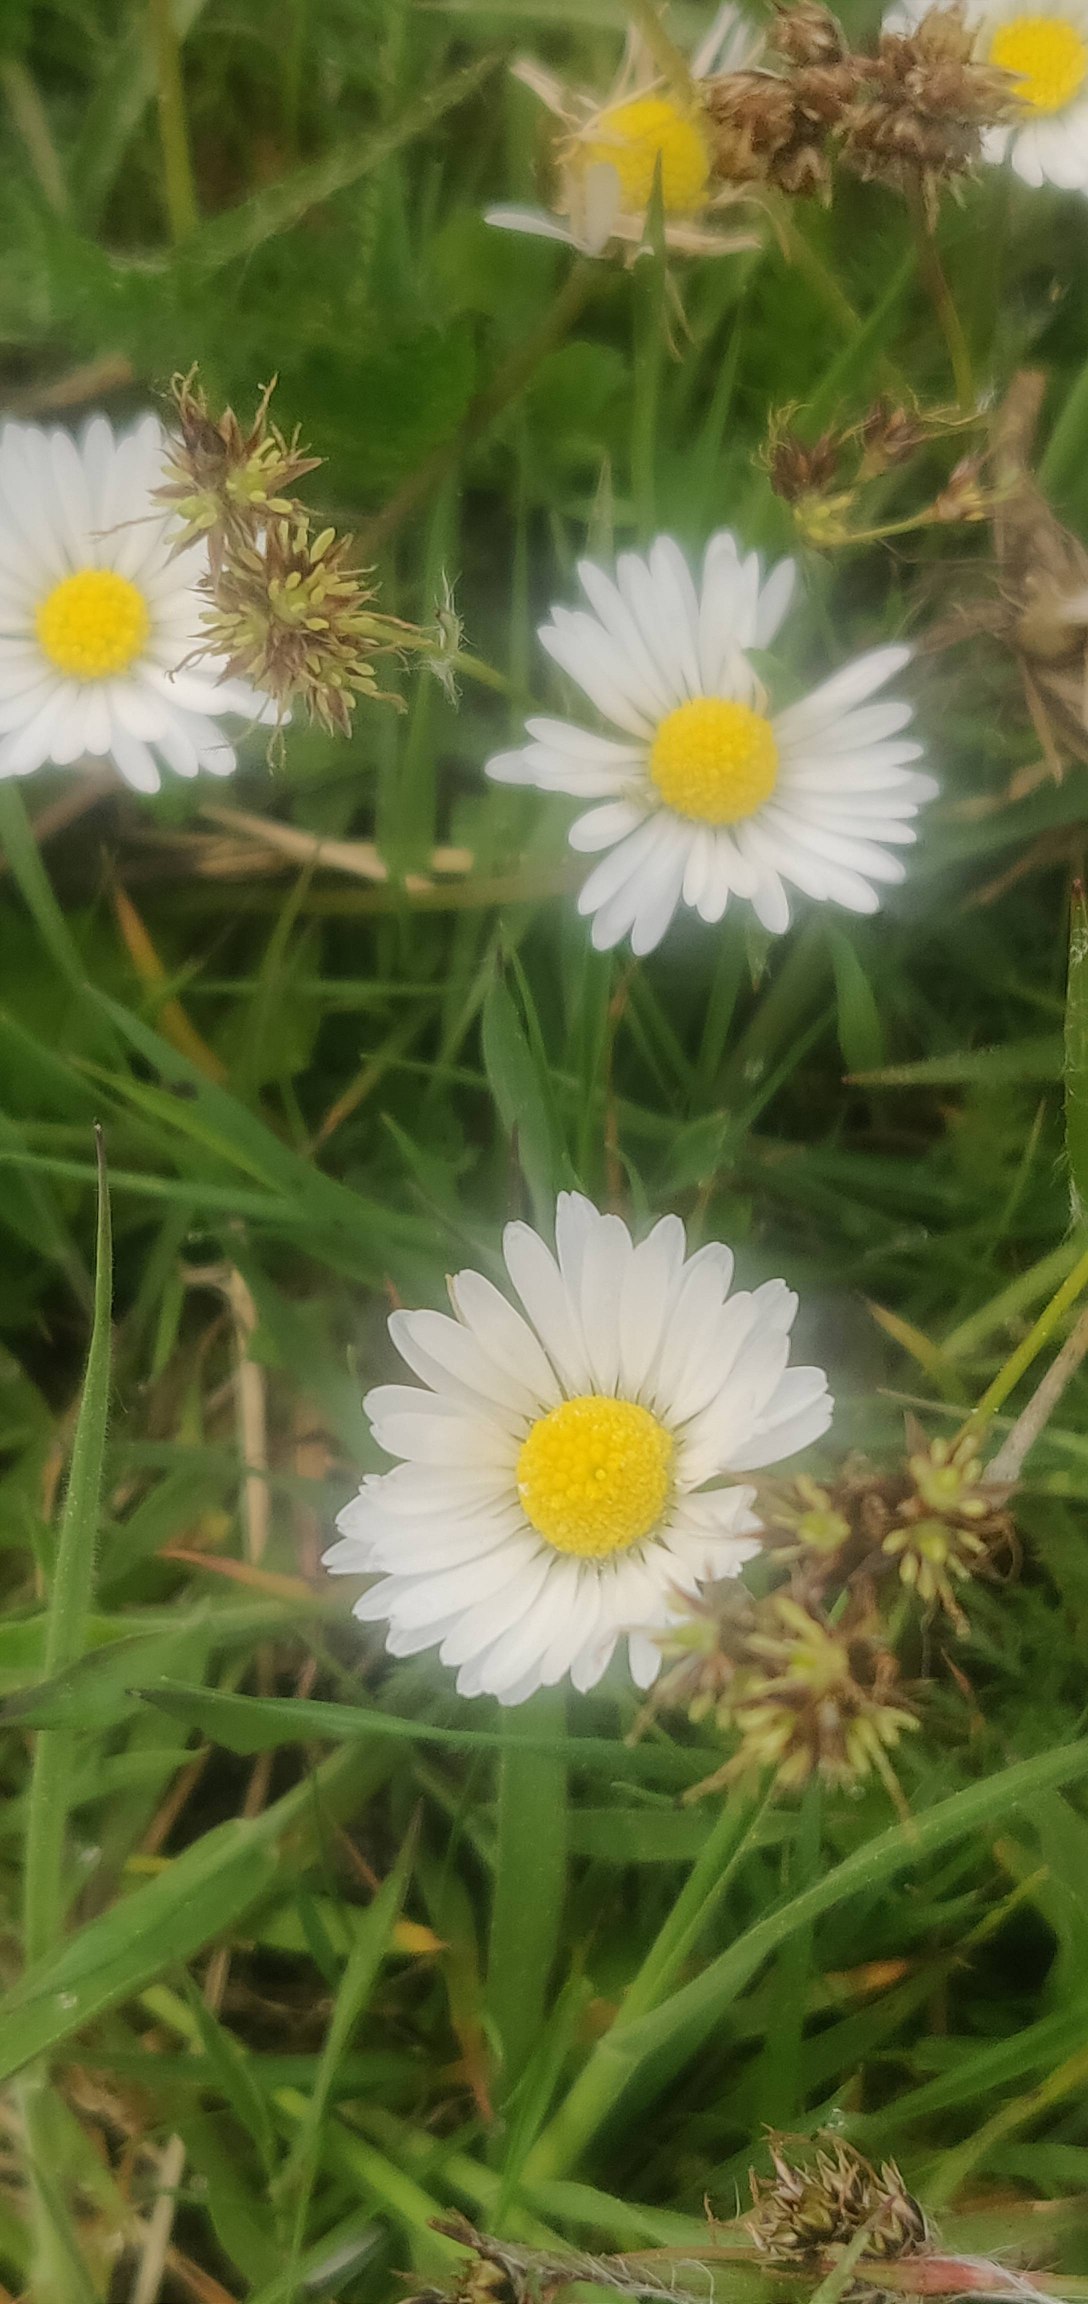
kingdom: Plantae
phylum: Tracheophyta
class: Magnoliopsida
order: Asterales
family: Asteraceae
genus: Bellis
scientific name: Bellis perennis
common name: Tusindfryd
